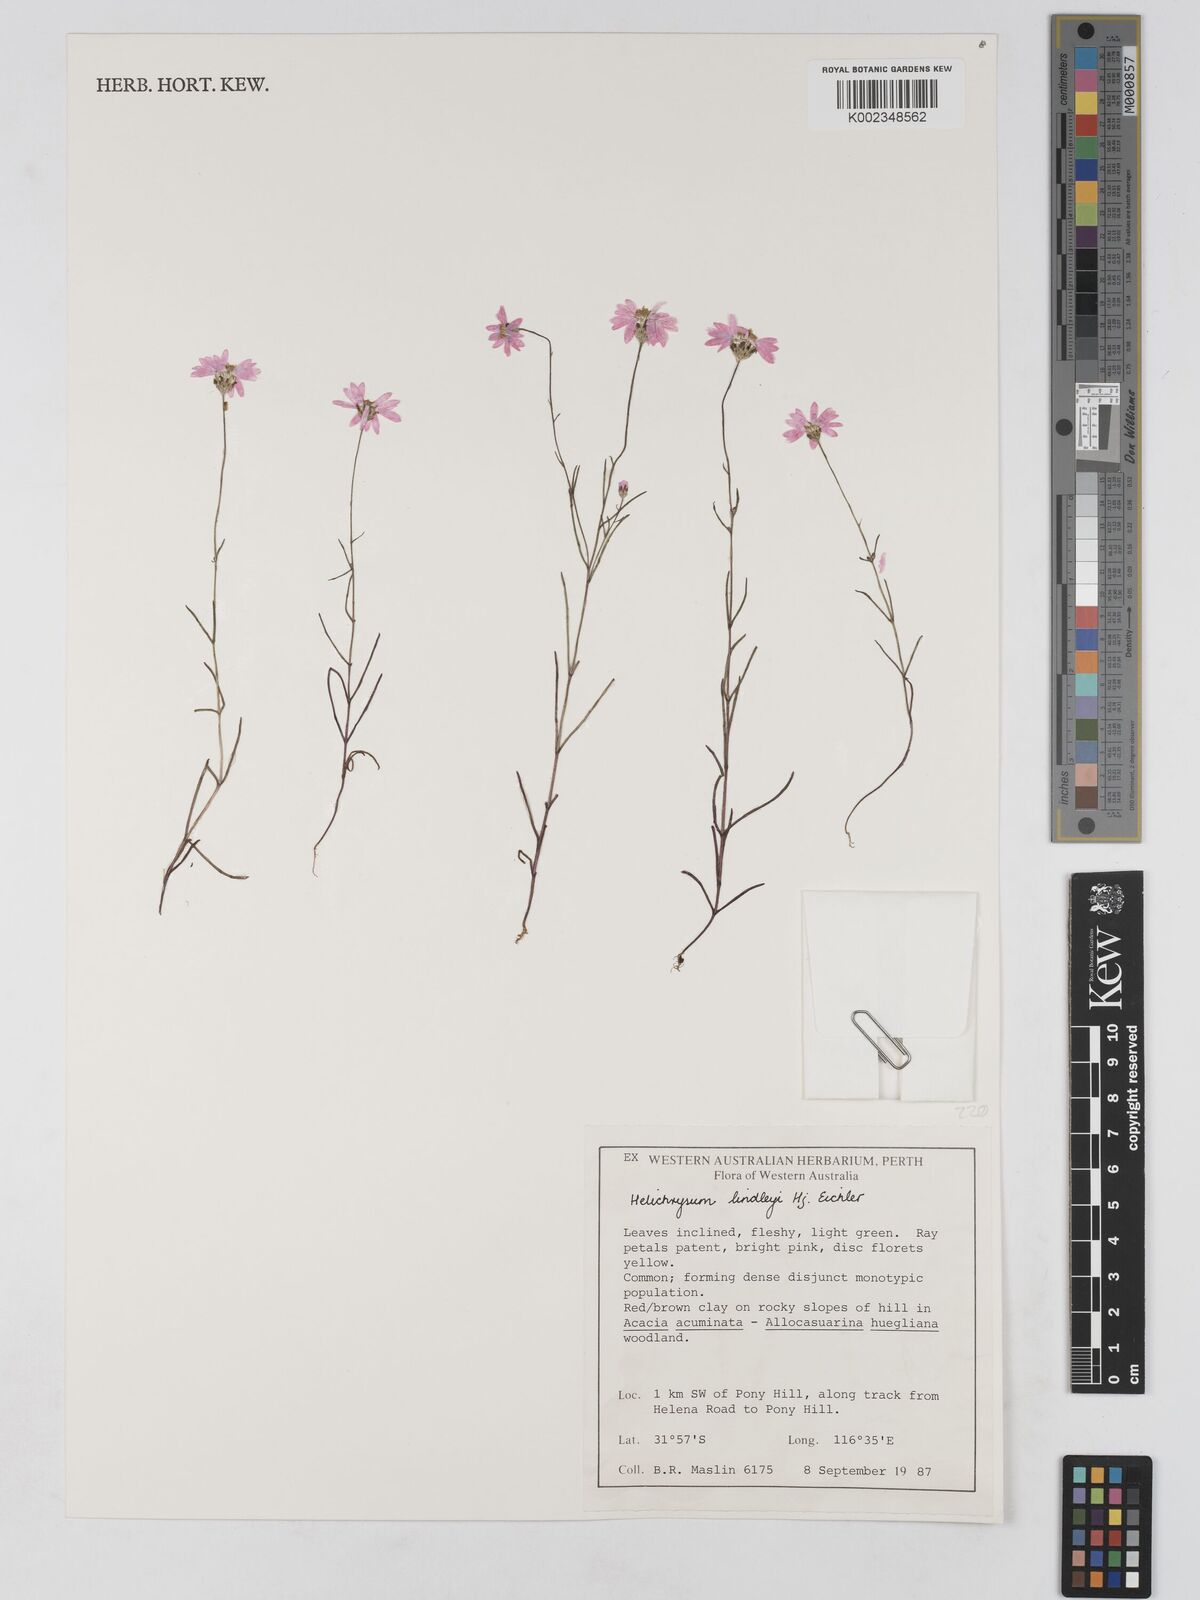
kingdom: Plantae
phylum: Tracheophyta
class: Magnoliopsida
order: Asterales
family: Asteraceae
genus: Lawrencella
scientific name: Lawrencella rosea
